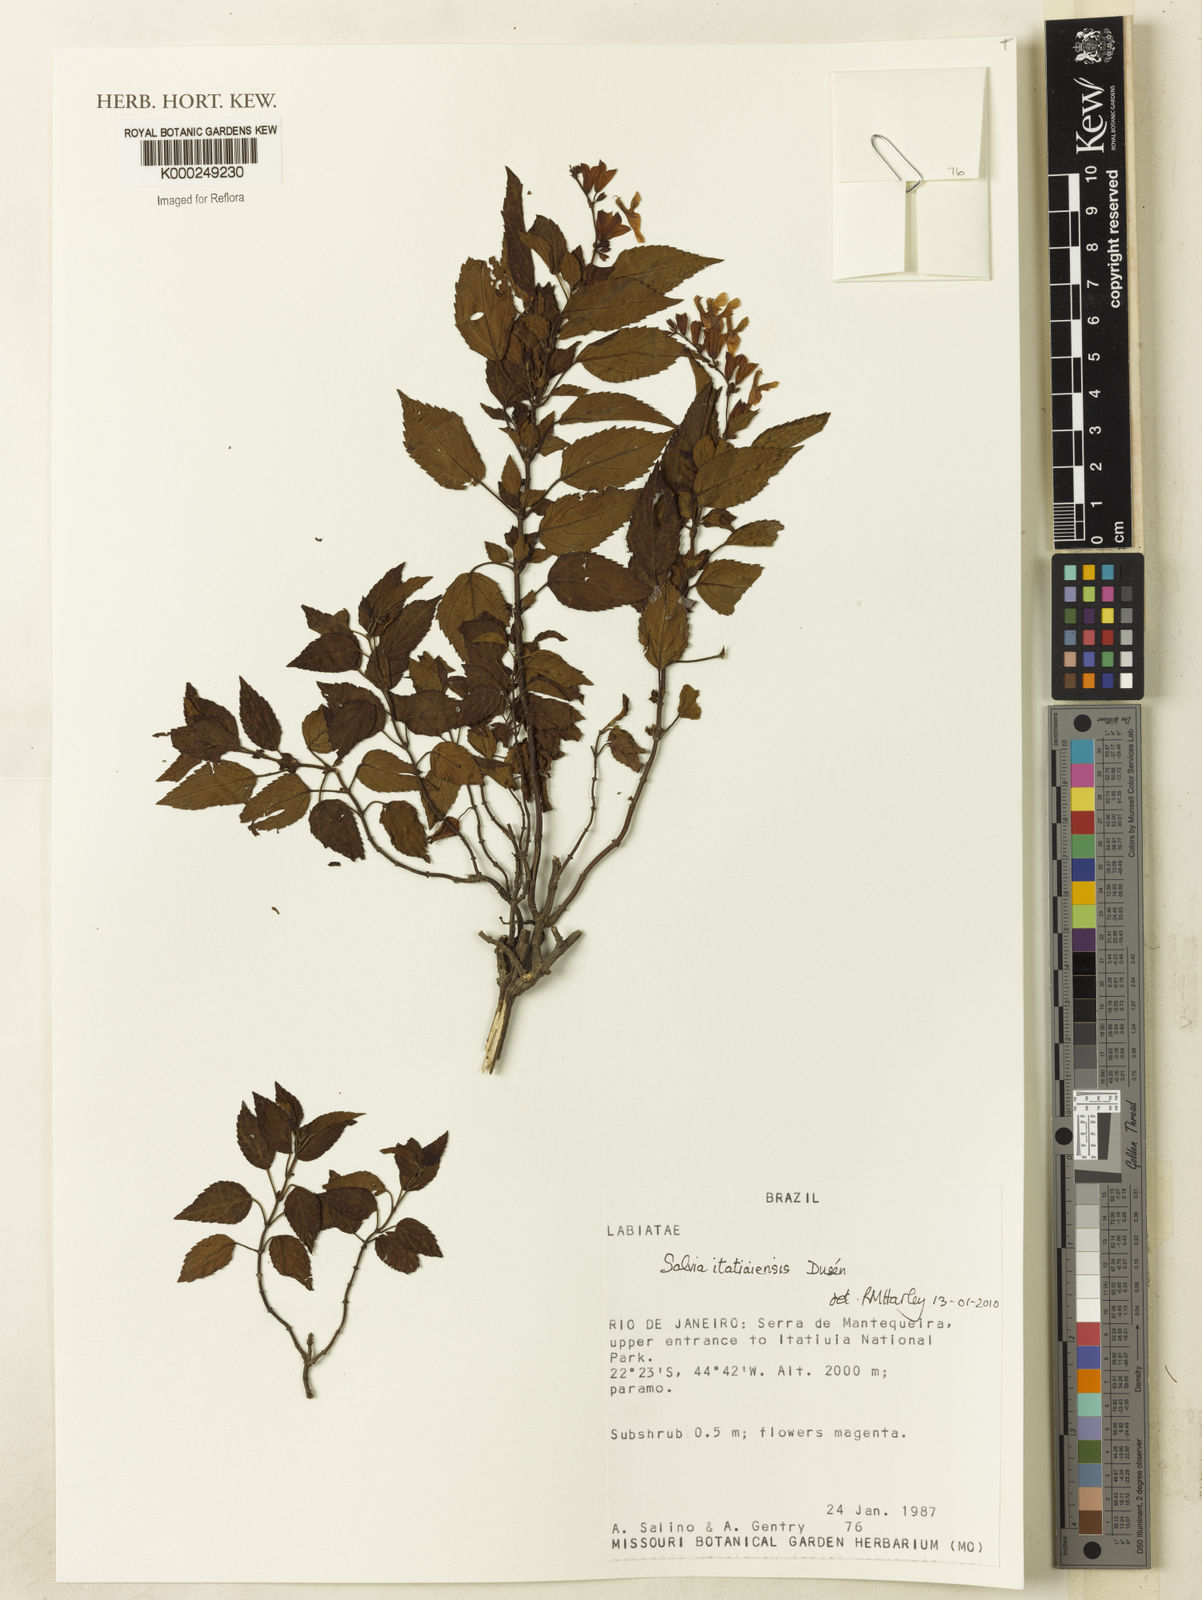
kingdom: Plantae
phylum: Tracheophyta
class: Magnoliopsida
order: Lamiales
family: Lamiaceae
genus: Salvia
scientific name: Salvia itatiaiensis
